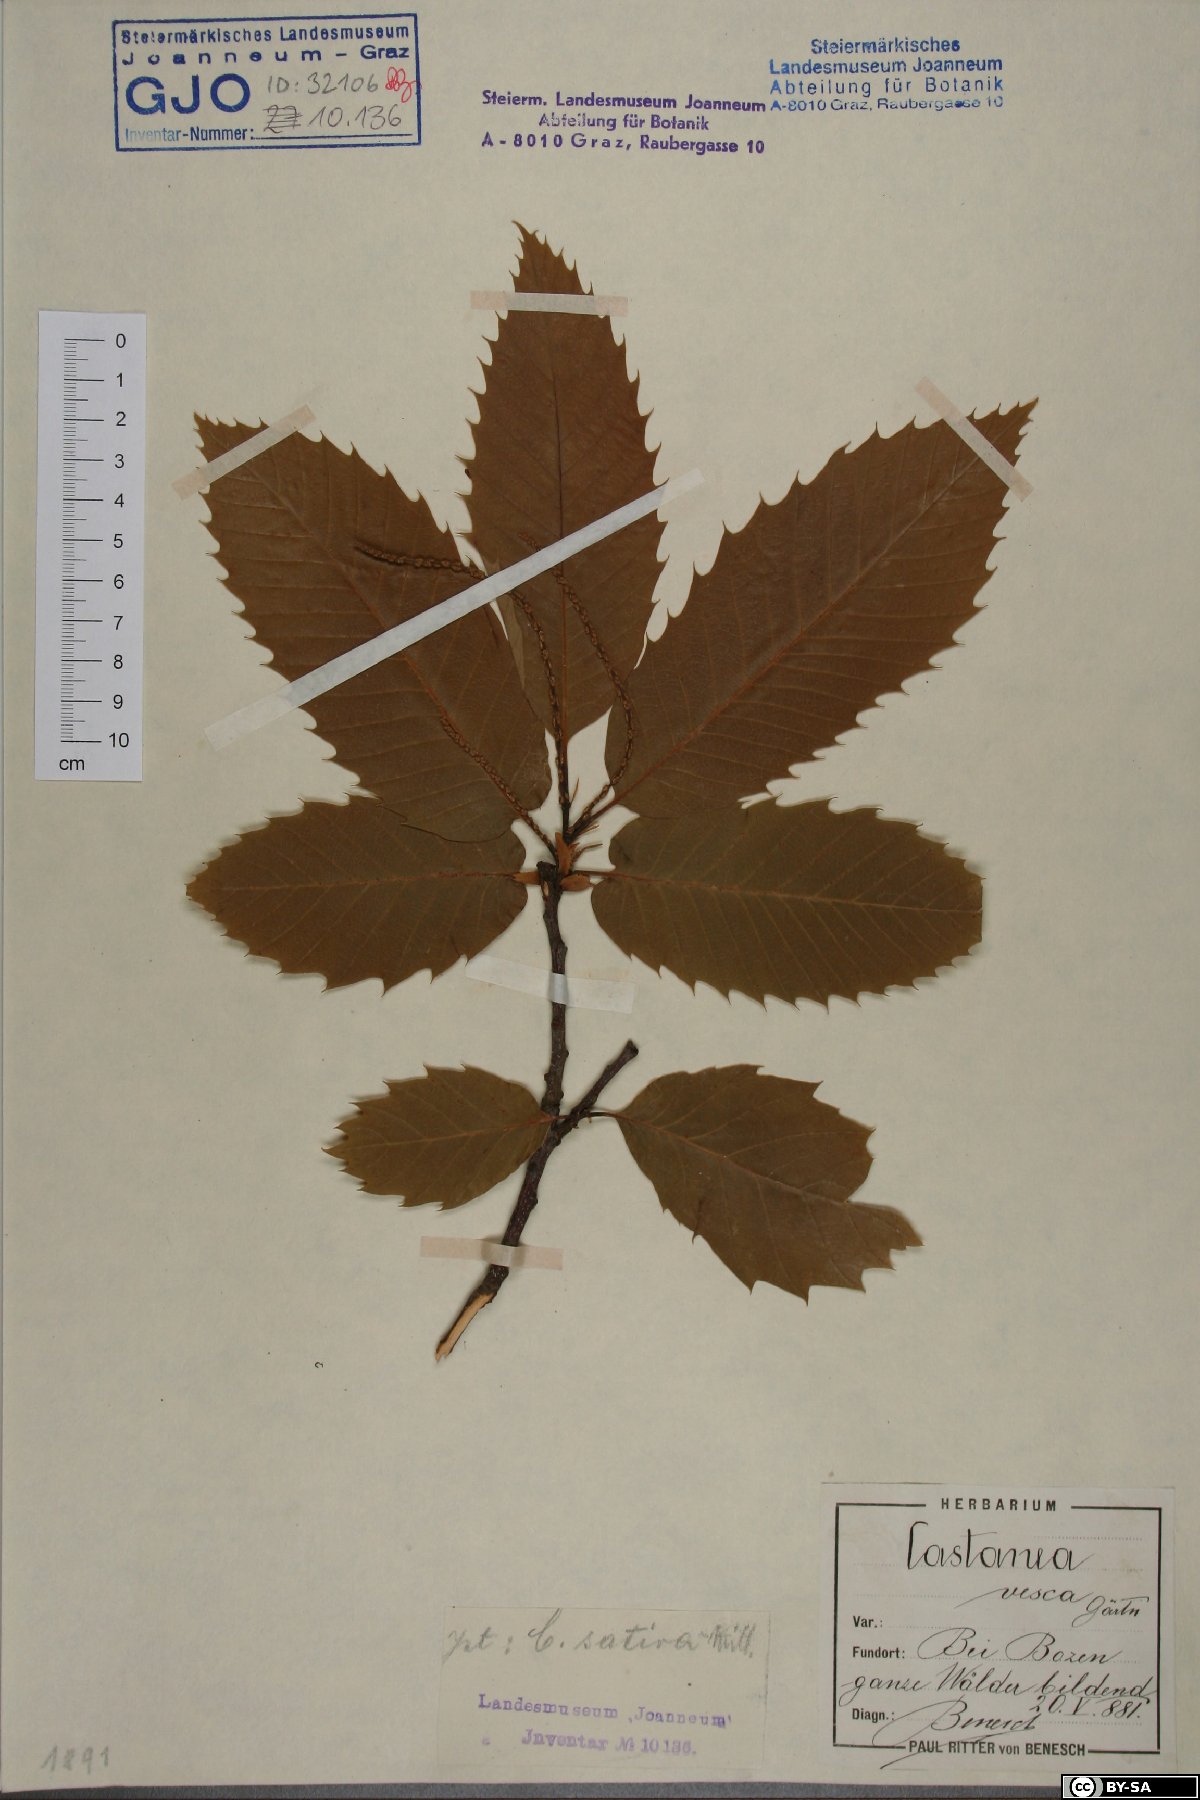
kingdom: Plantae
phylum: Tracheophyta
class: Magnoliopsida
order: Fagales
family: Fagaceae
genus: Castanea
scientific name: Castanea sativa
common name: Sweet chestnut
